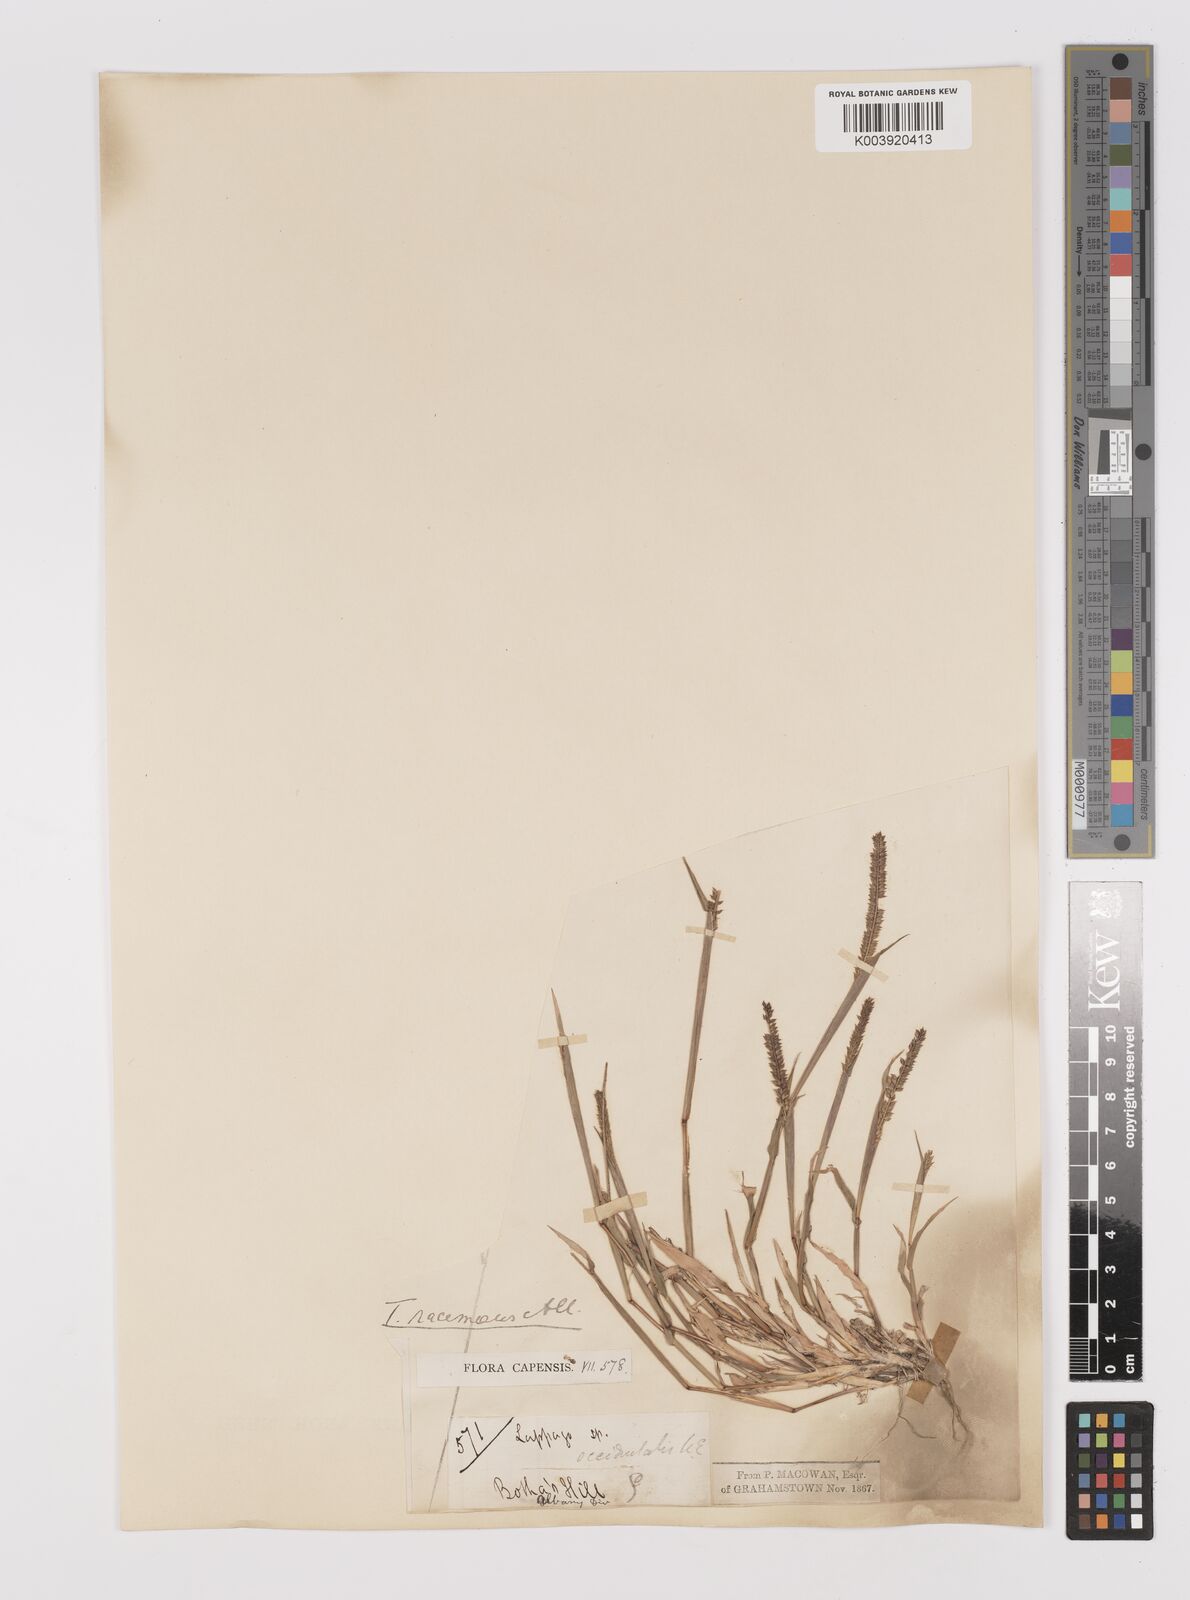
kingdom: Plantae
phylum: Tracheophyta
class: Liliopsida
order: Poales
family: Poaceae
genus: Tragus
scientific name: Tragus berteronianus
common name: African bur-grass
